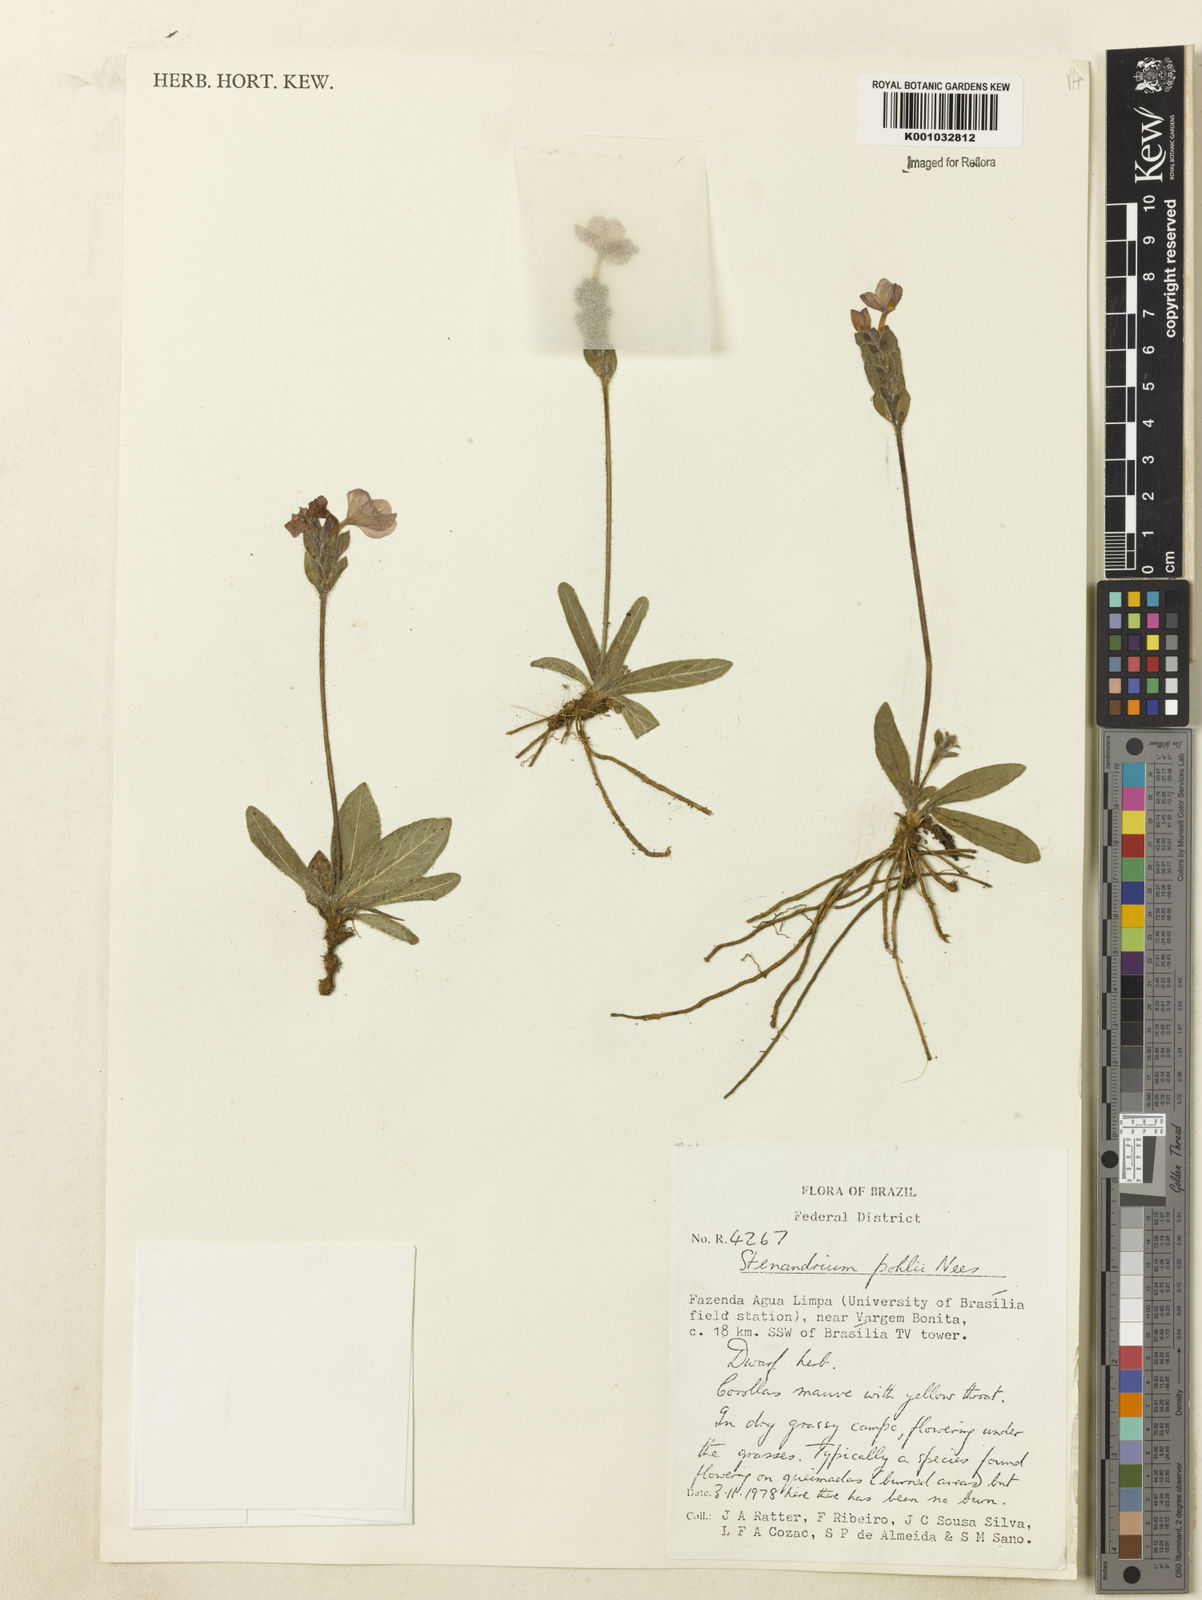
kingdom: Plantae
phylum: Tracheophyta
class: Magnoliopsida
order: Lamiales
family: Acanthaceae
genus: Stenandrium
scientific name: Stenandrium pohlii
